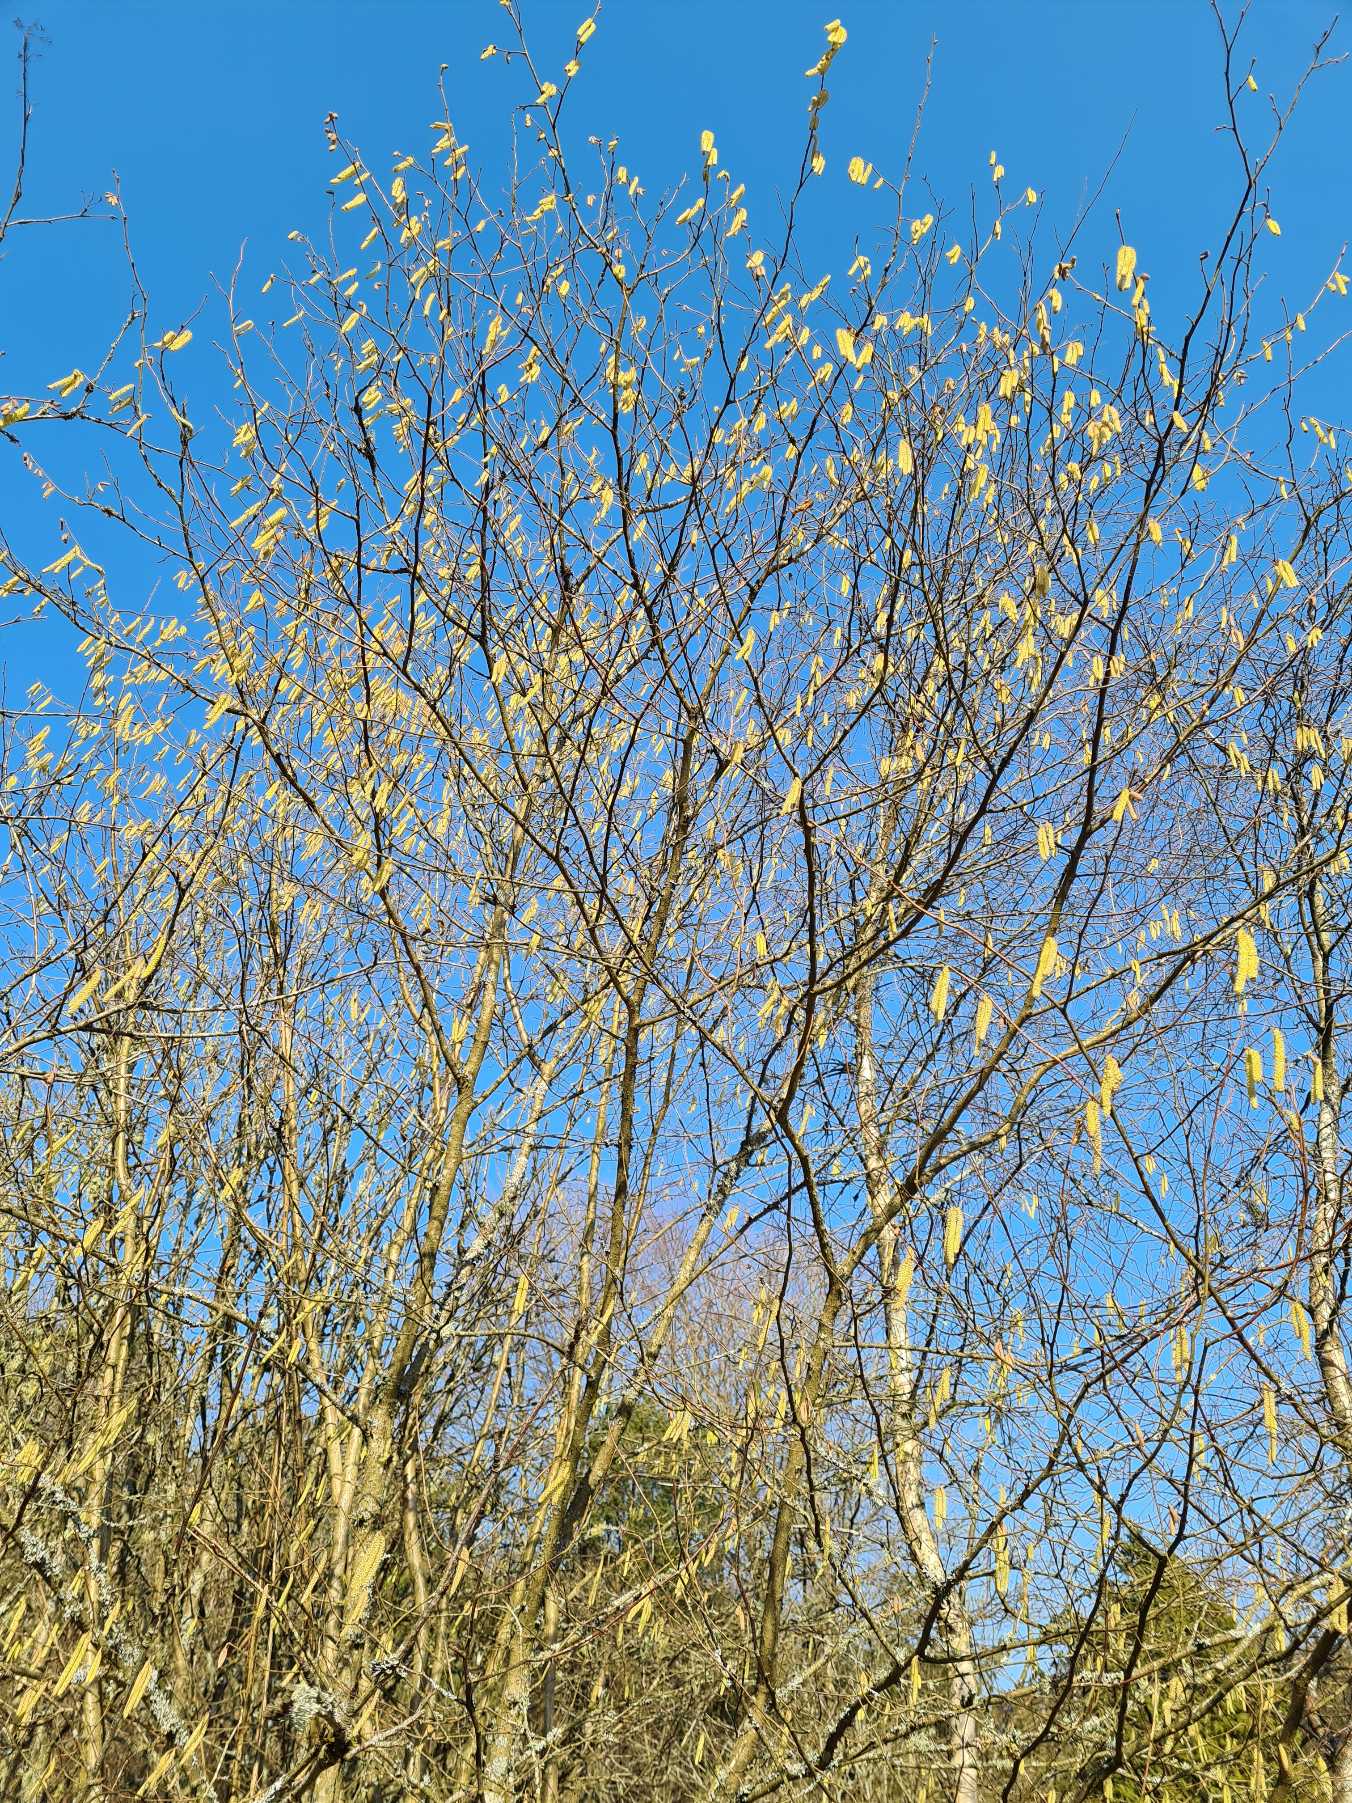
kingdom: Plantae
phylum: Tracheophyta
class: Magnoliopsida
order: Fagales
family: Betulaceae
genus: Corylus
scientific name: Corylus avellana
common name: Hassel
